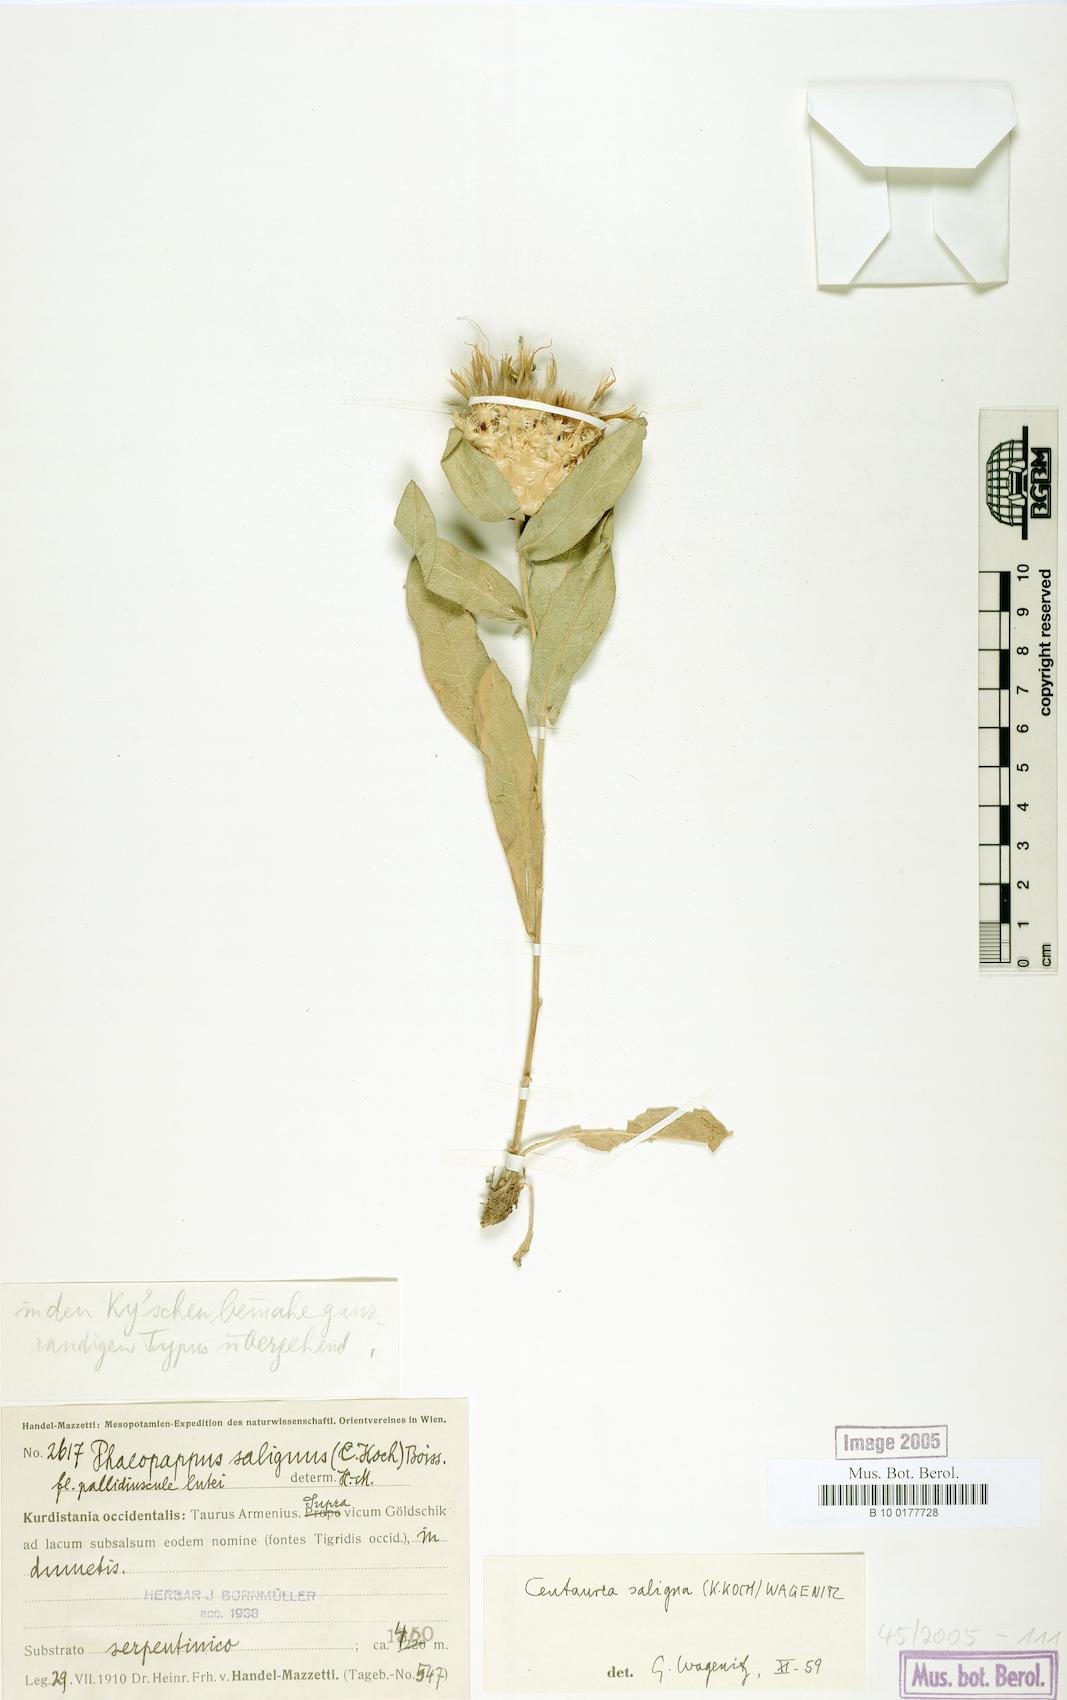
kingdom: Plantae
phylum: Tracheophyta
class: Magnoliopsida
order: Asterales
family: Asteraceae
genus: Centaurea
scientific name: Centaurea saligna
